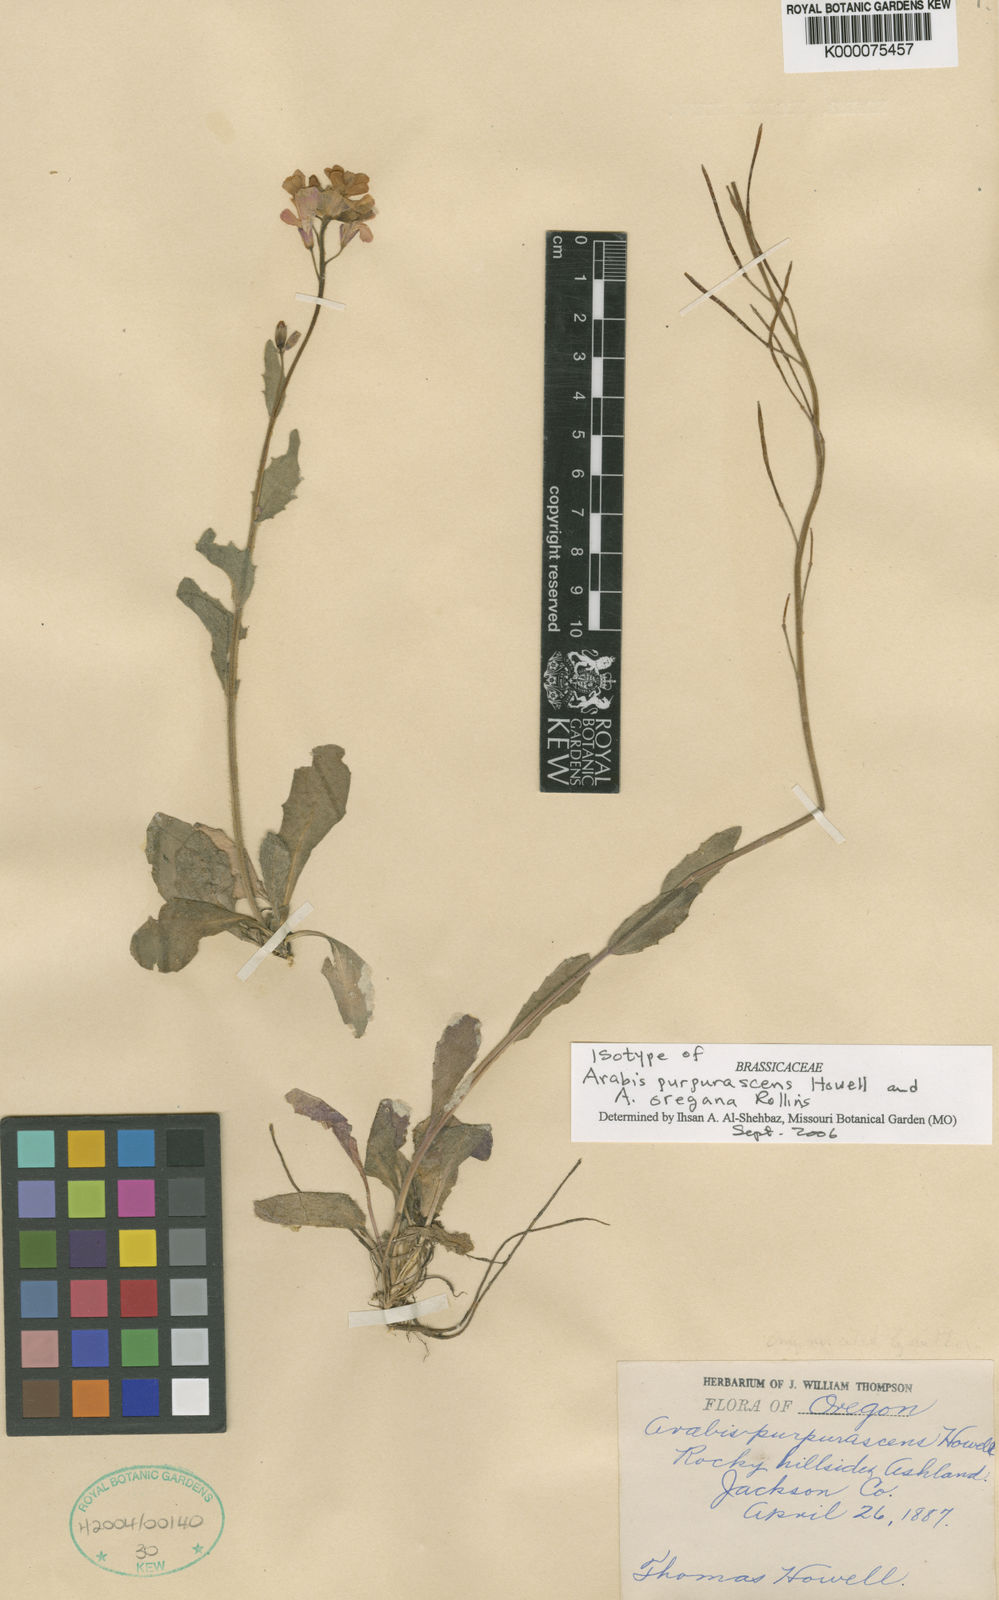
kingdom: Plantae
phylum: Tracheophyta
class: Magnoliopsida
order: Brassicales
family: Brassicaceae
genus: Arabis
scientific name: Arabis oregana
